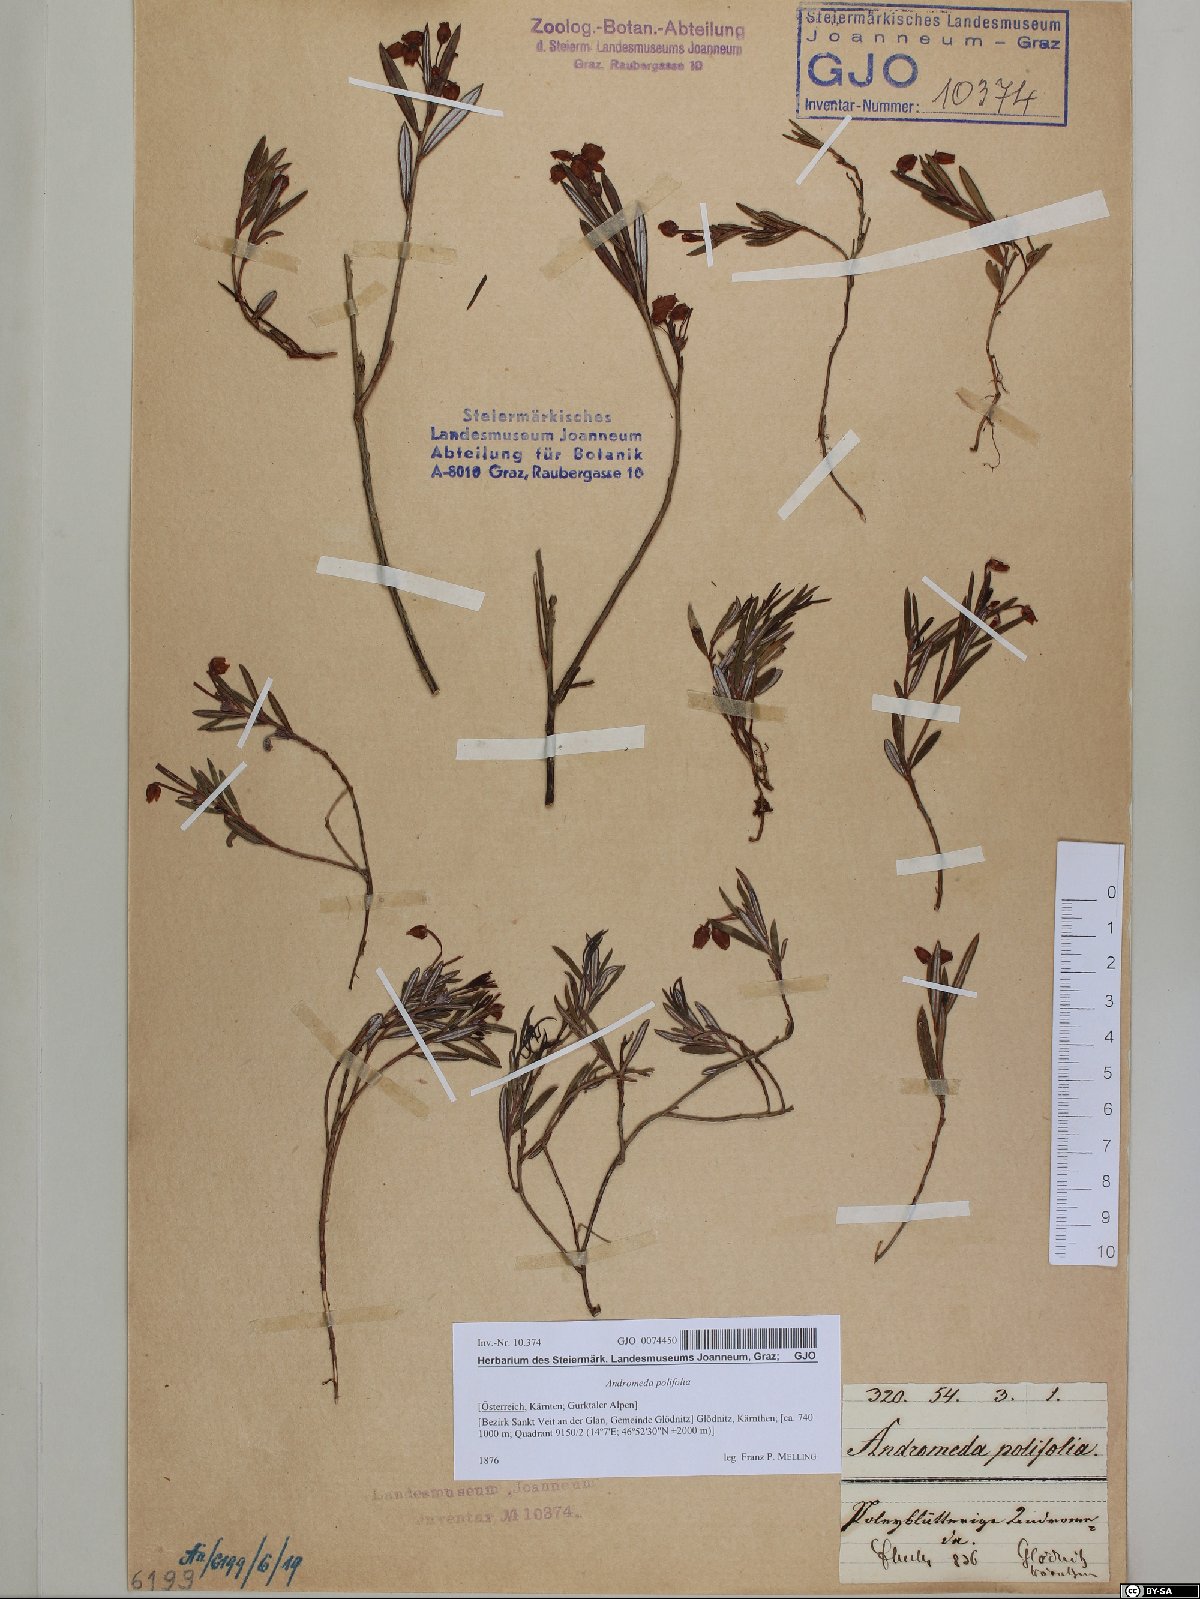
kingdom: Plantae
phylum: Tracheophyta
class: Magnoliopsida
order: Ericales
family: Ericaceae
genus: Andromeda
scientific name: Andromeda polifolia
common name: Bog-rosemary
